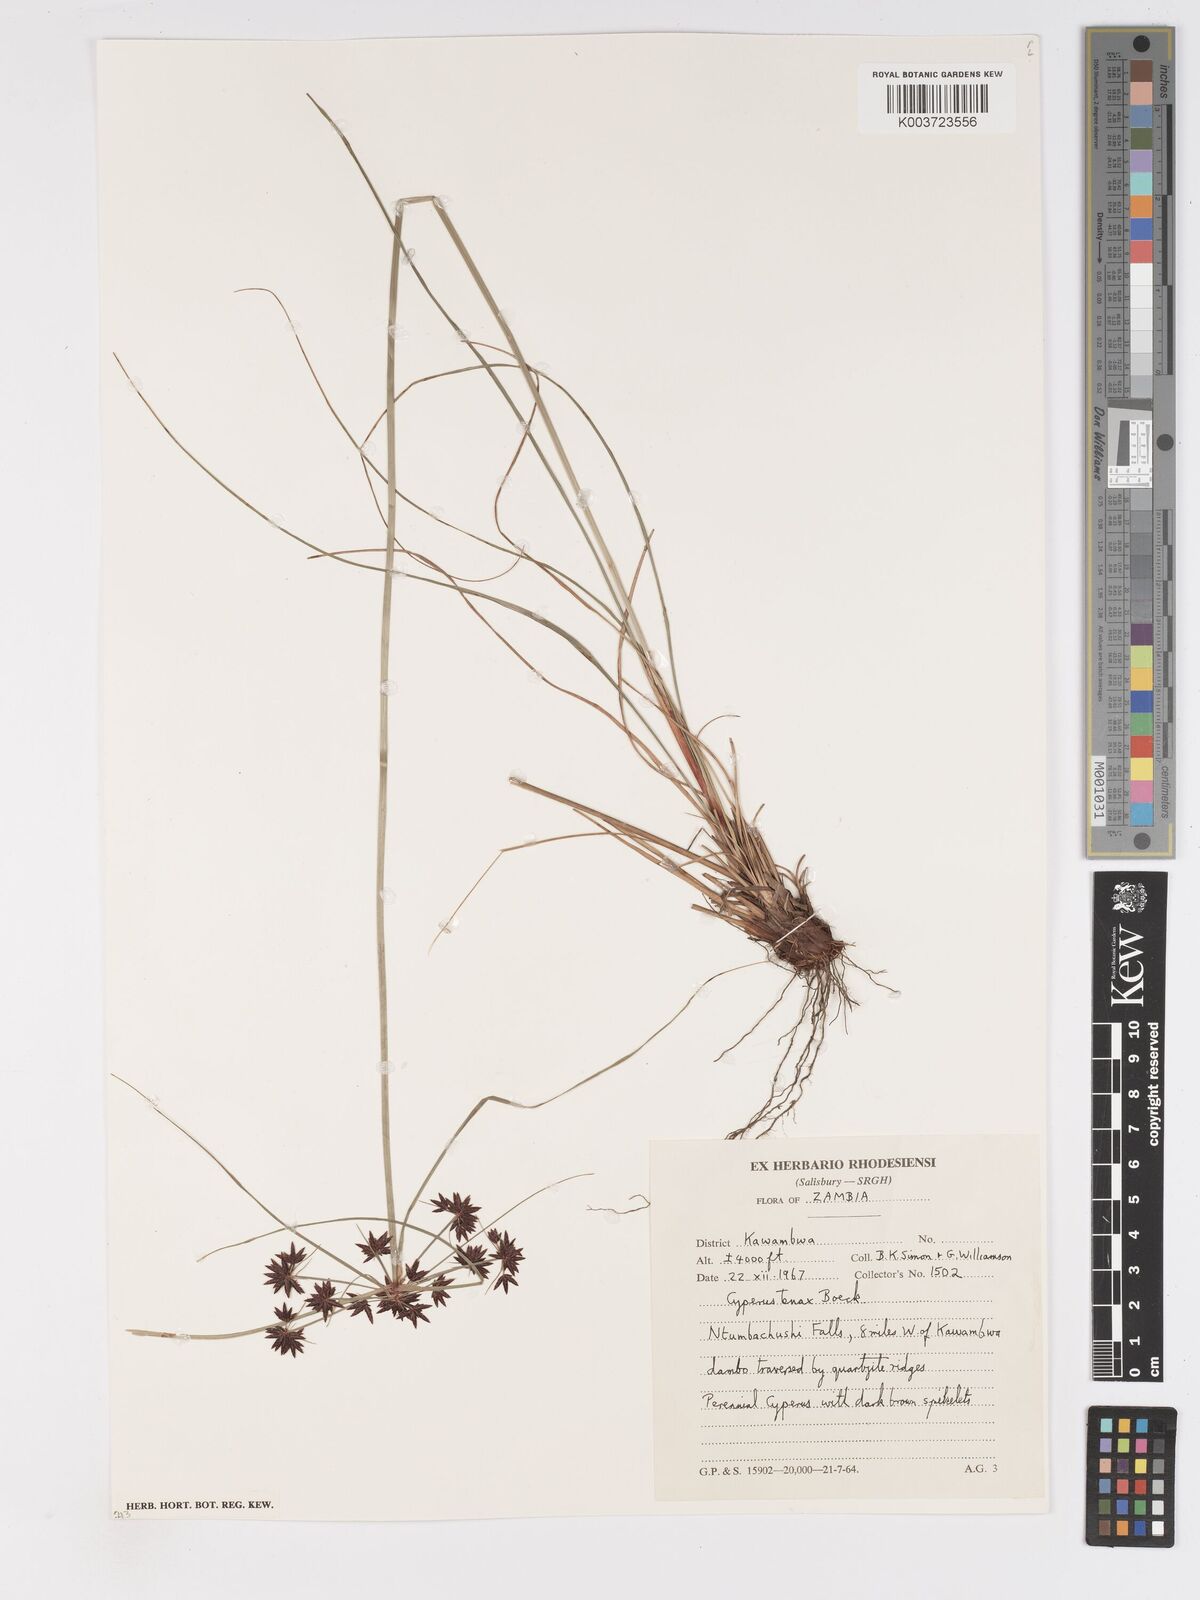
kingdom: Plantae
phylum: Tracheophyta
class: Liliopsida
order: Poales
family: Cyperaceae
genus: Cyperus
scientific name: Cyperus tenax
